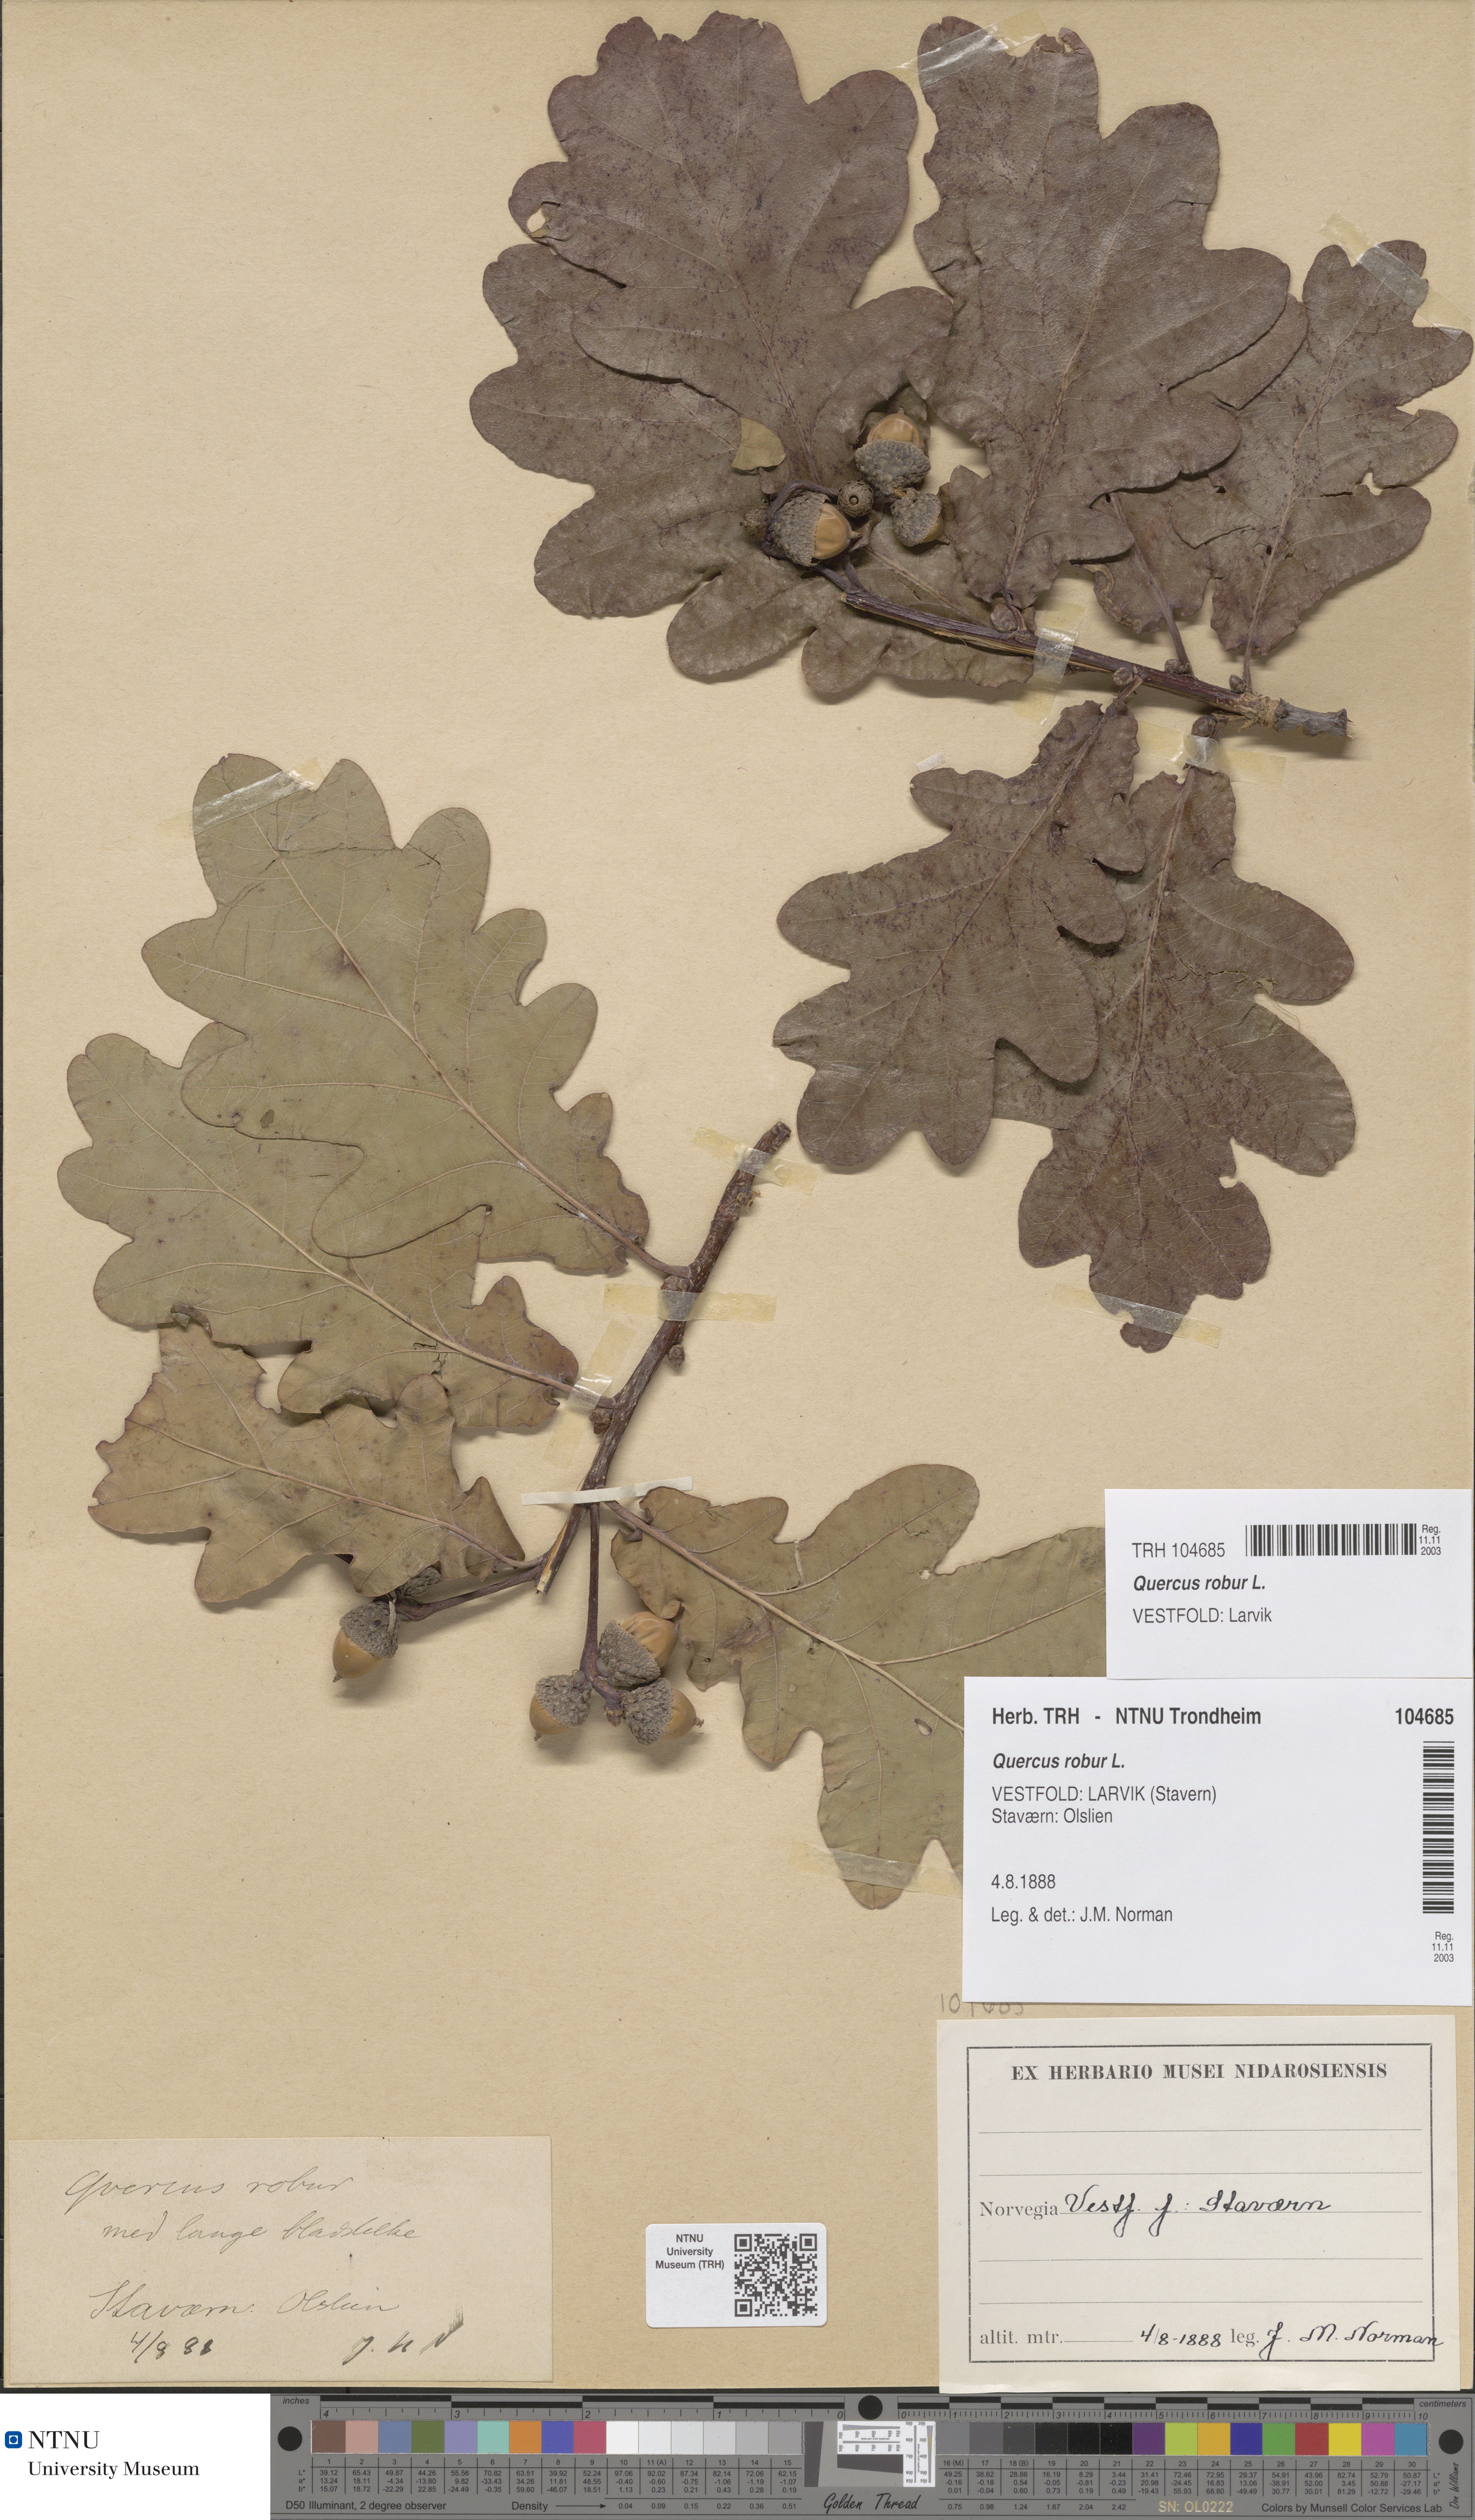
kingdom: Plantae
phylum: Tracheophyta
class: Magnoliopsida
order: Fagales
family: Fagaceae
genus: Quercus
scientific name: Quercus robur
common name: Pedunculate oak
